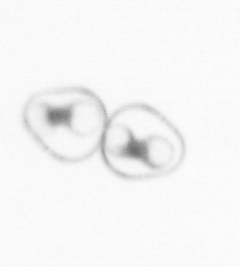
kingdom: Chromista
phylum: Myzozoa
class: Dinophyceae
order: Noctilucales
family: Noctilucaceae
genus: Noctiluca
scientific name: Noctiluca scintillans
